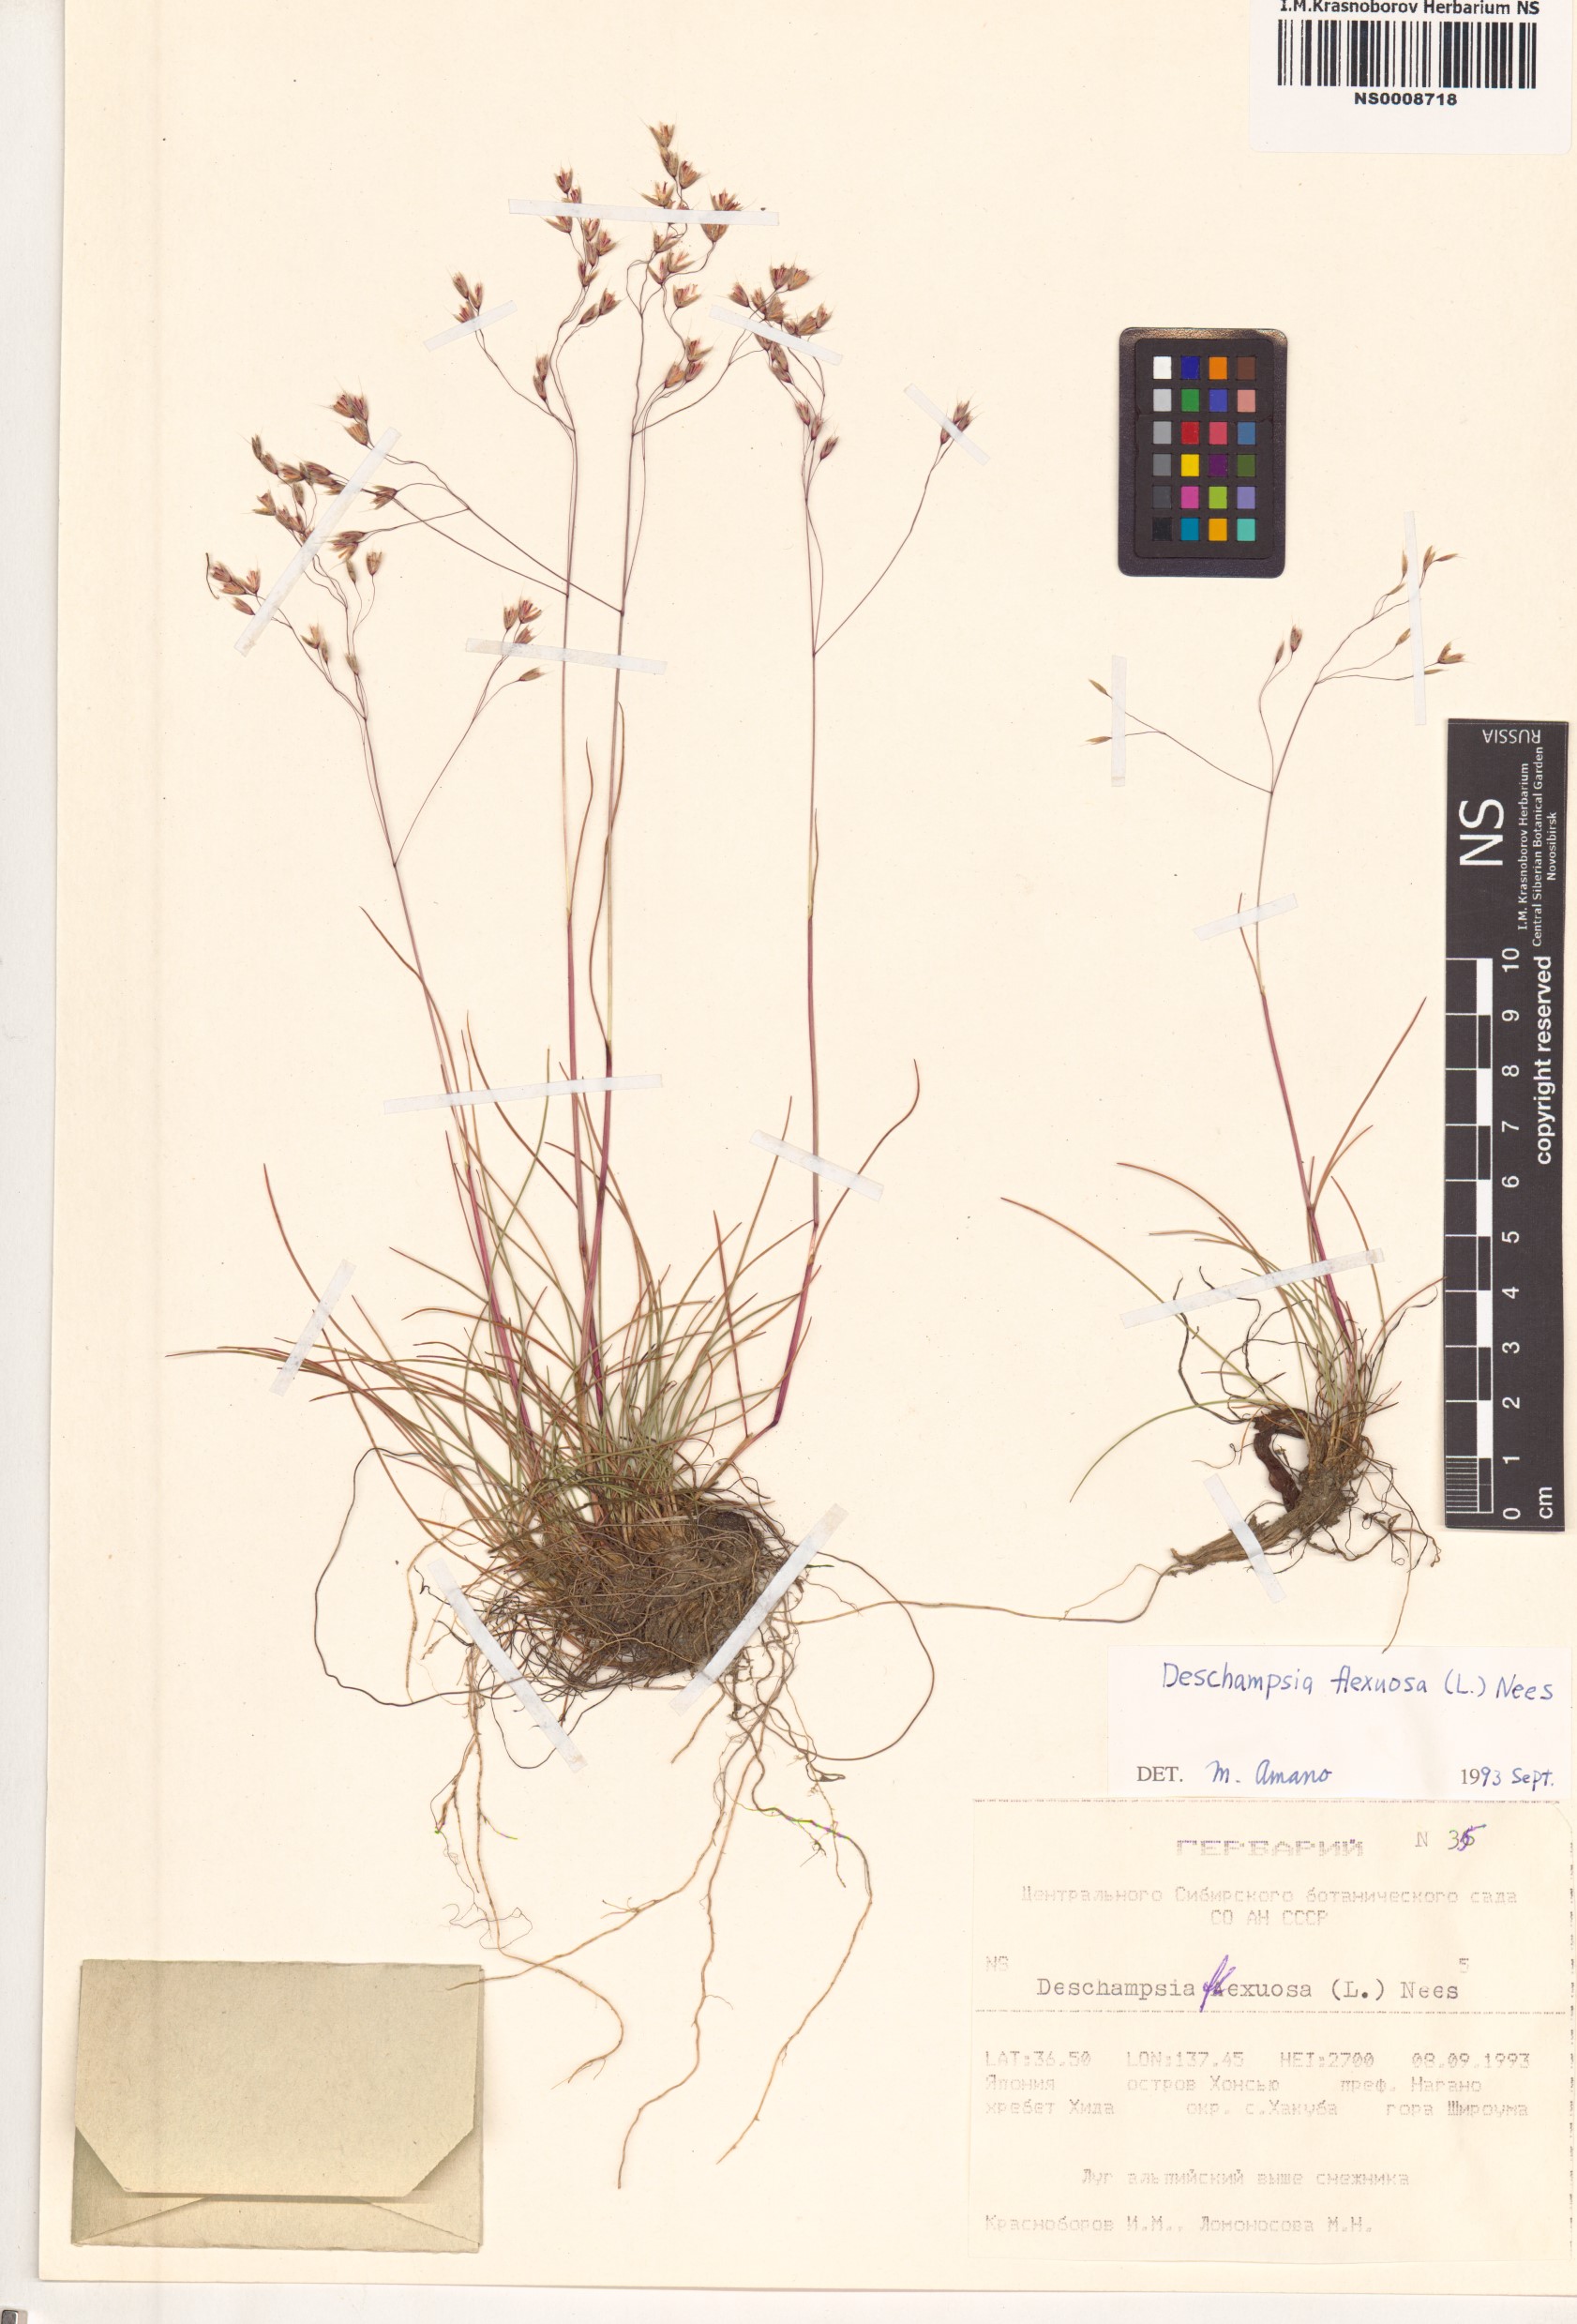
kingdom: Plantae
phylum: Tracheophyta
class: Liliopsida
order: Poales
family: Poaceae
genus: Avenella
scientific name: Avenella flexuosa
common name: Wavy hairgrass
